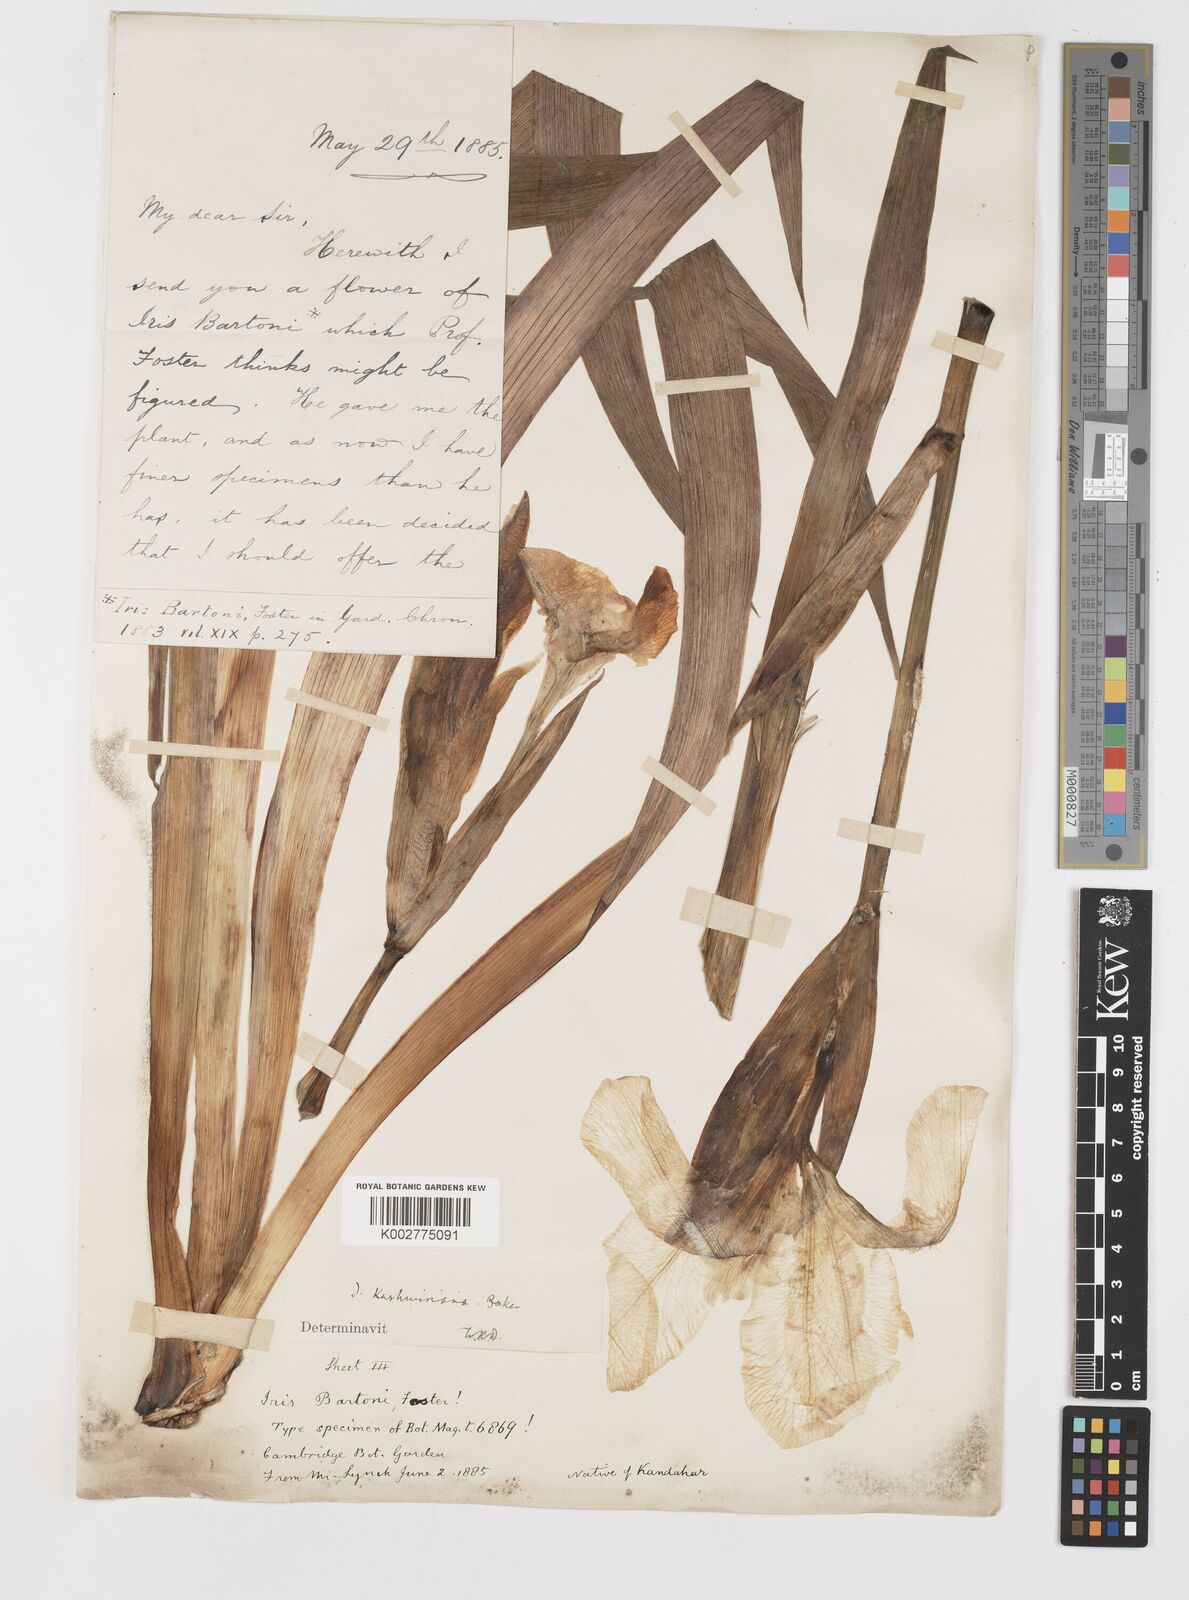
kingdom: Plantae
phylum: Tracheophyta
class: Liliopsida
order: Asparagales
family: Iridaceae
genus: Iris
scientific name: Iris kashmiriana
